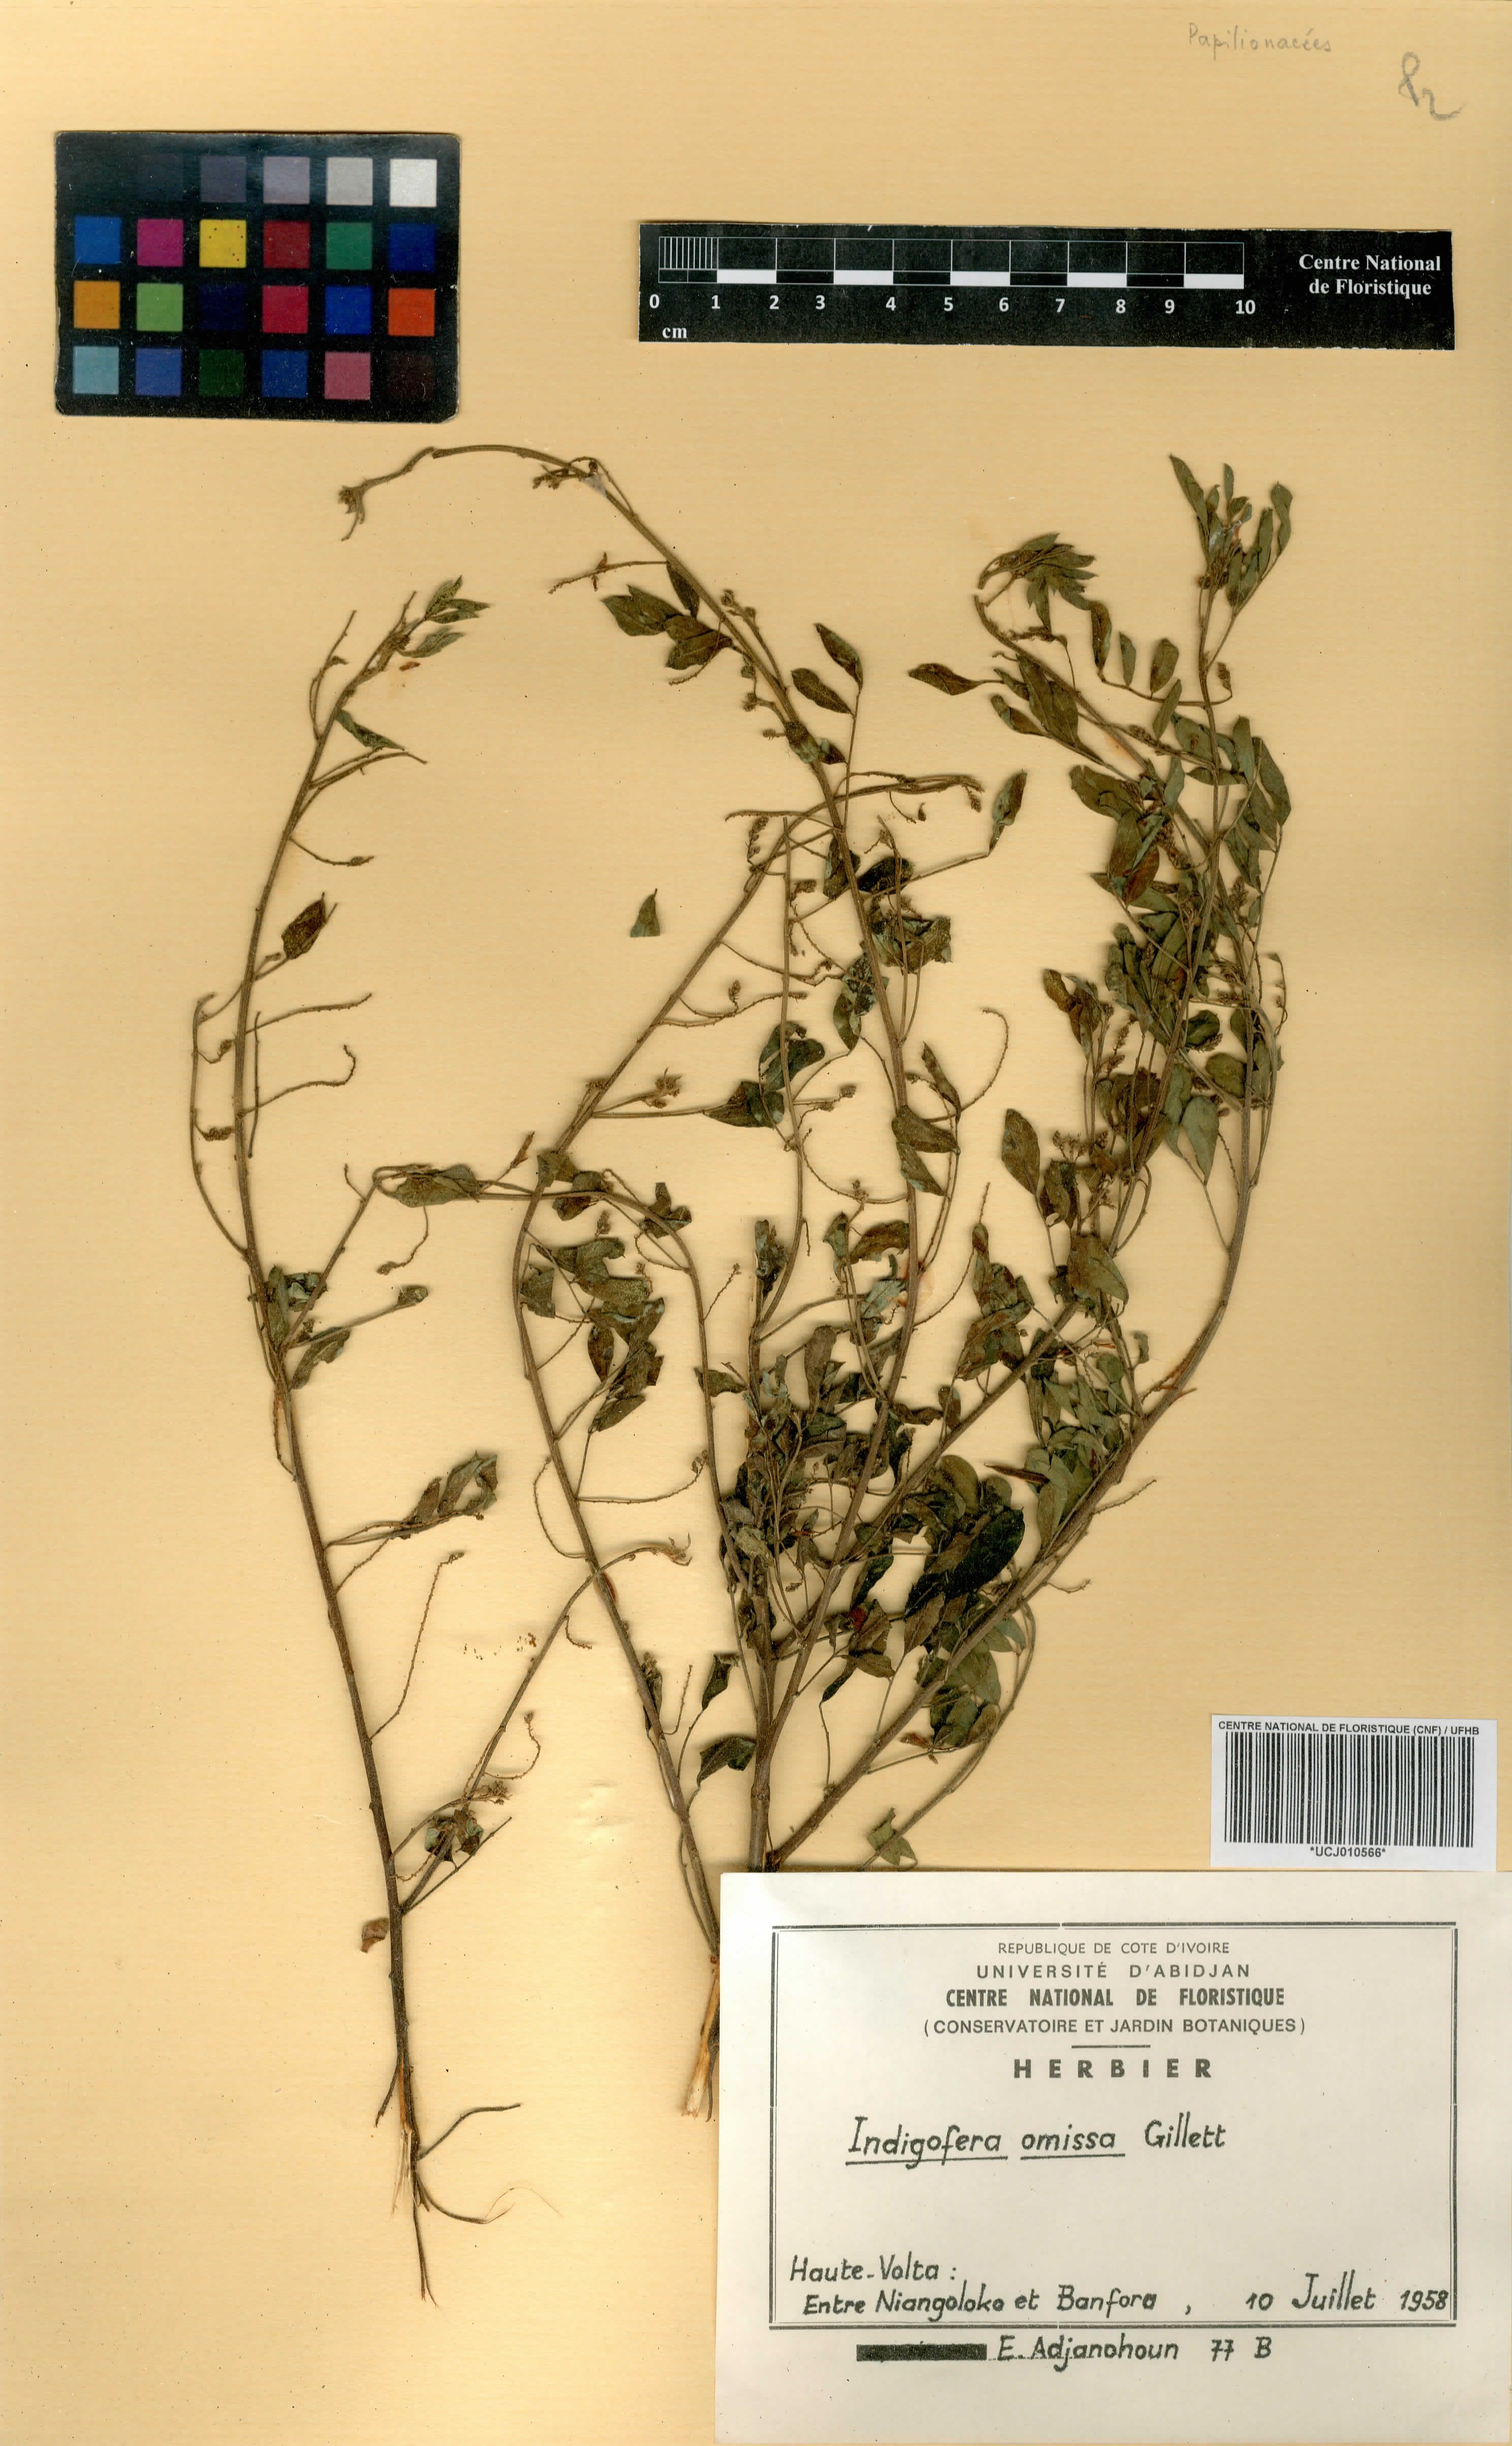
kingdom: Plantae
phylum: Tracheophyta
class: Magnoliopsida
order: Fabales
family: Fabaceae
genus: Indigofera
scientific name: Indigofera omissa
